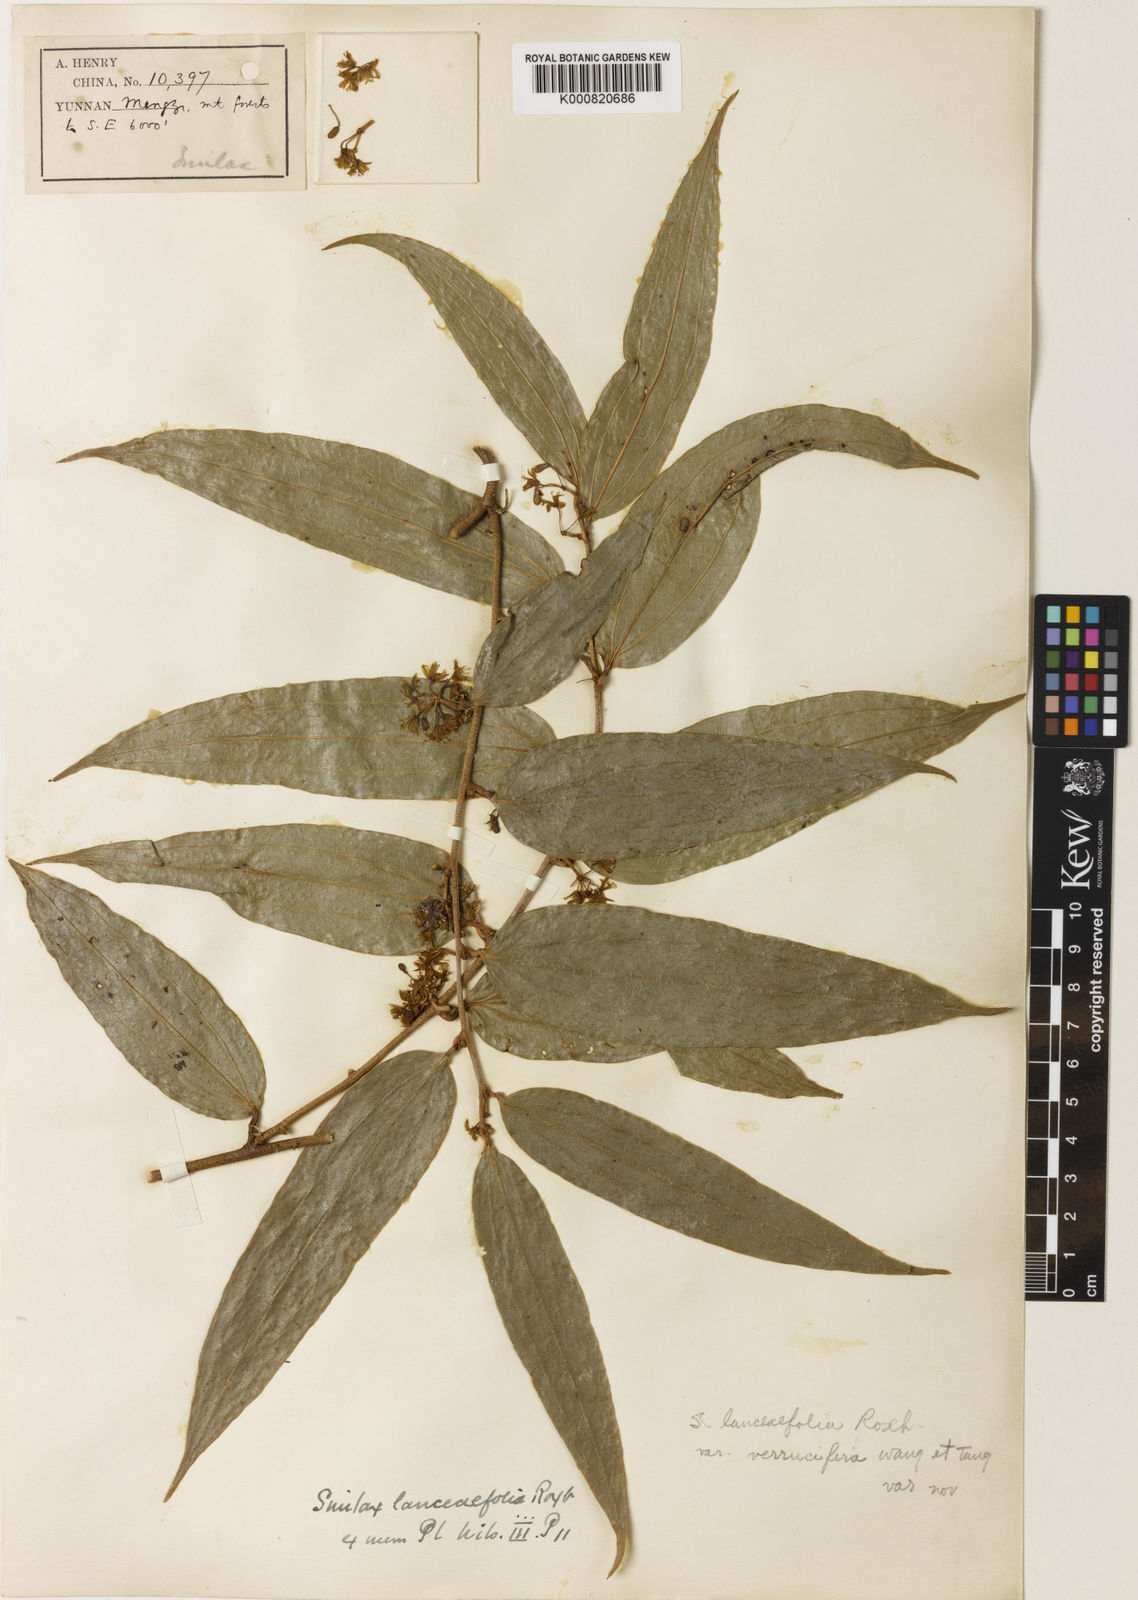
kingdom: Plantae
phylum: Tracheophyta
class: Liliopsida
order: Liliales
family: Smilacaceae
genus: Smilax
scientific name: Smilax lanceifolia
